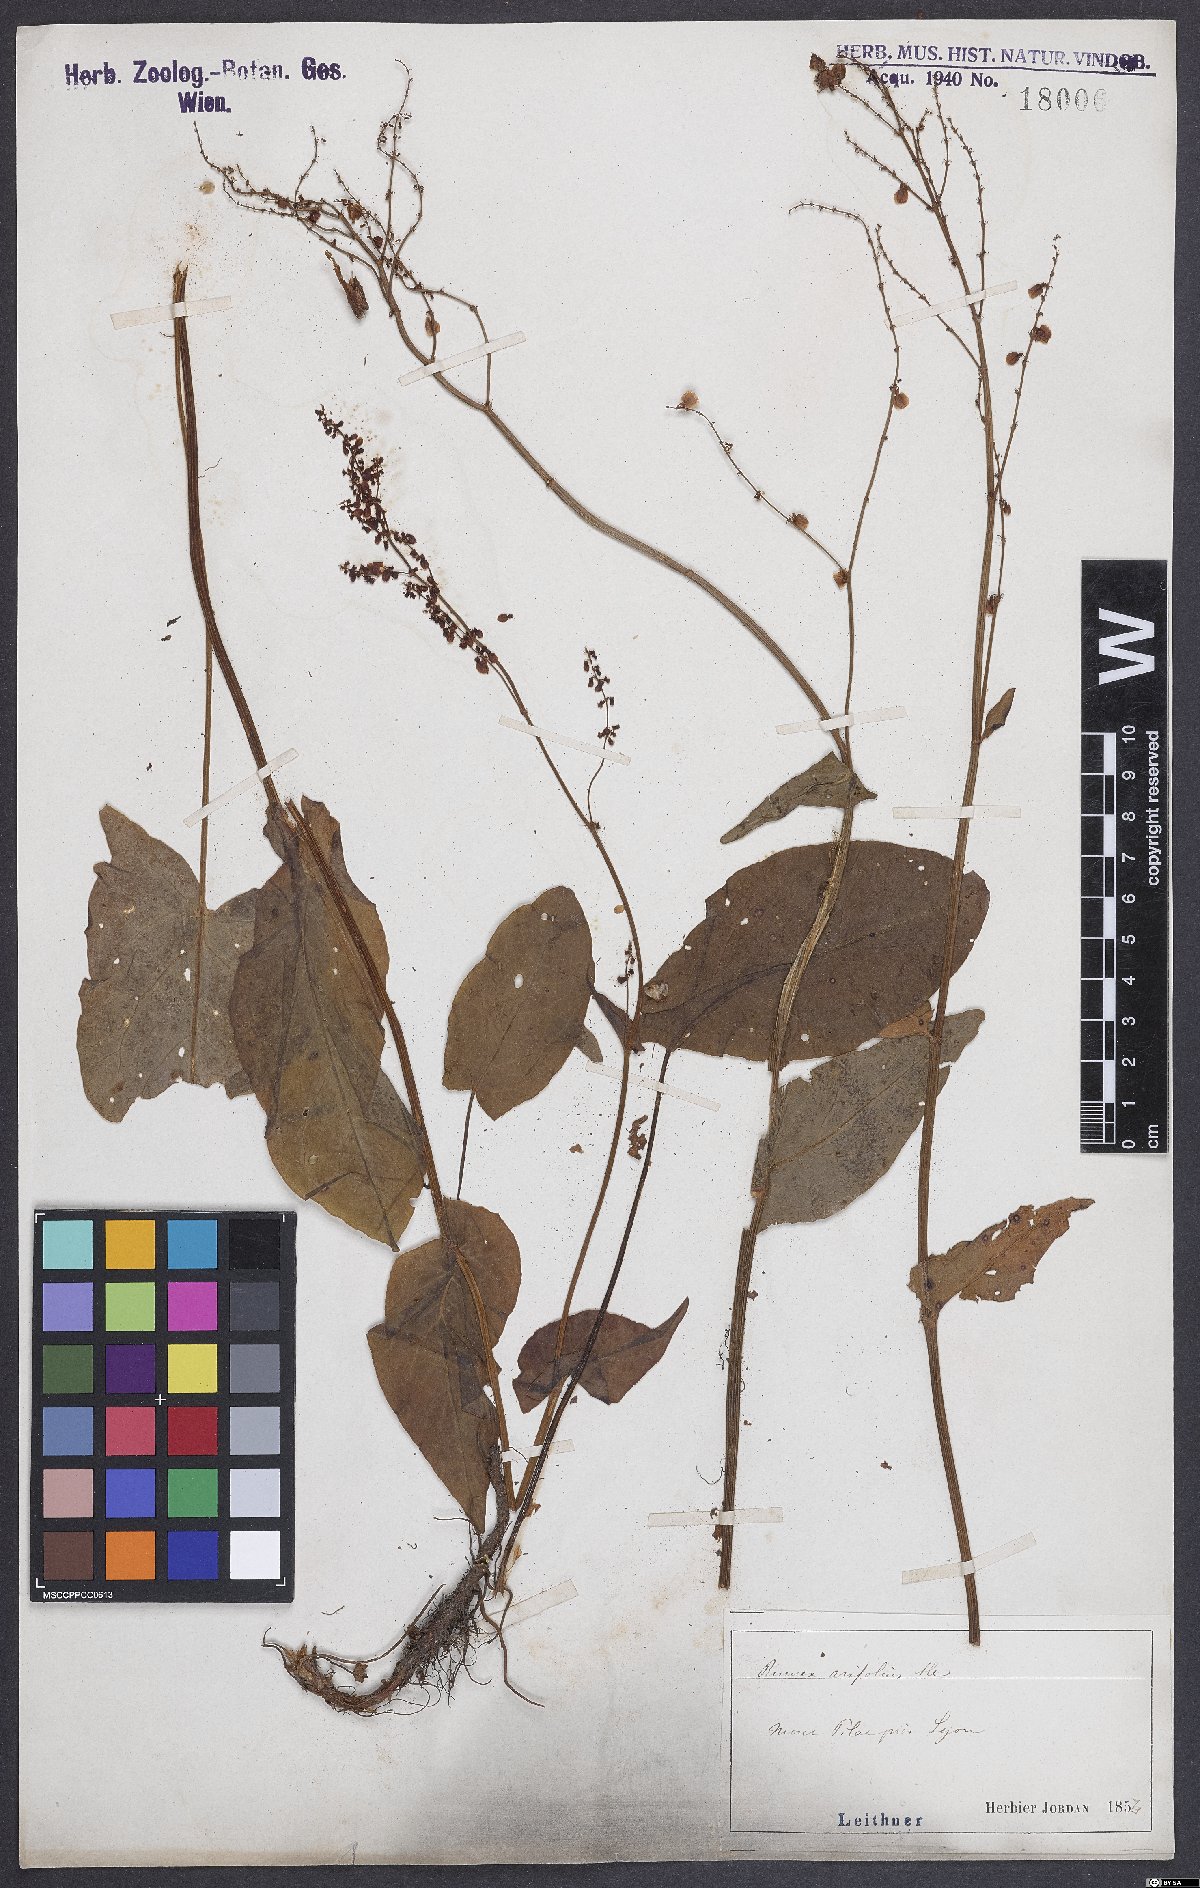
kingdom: Plantae
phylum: Tracheophyta
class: Magnoliopsida
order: Caryophyllales
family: Polygonaceae
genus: Rumex
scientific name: Rumex arifolius
